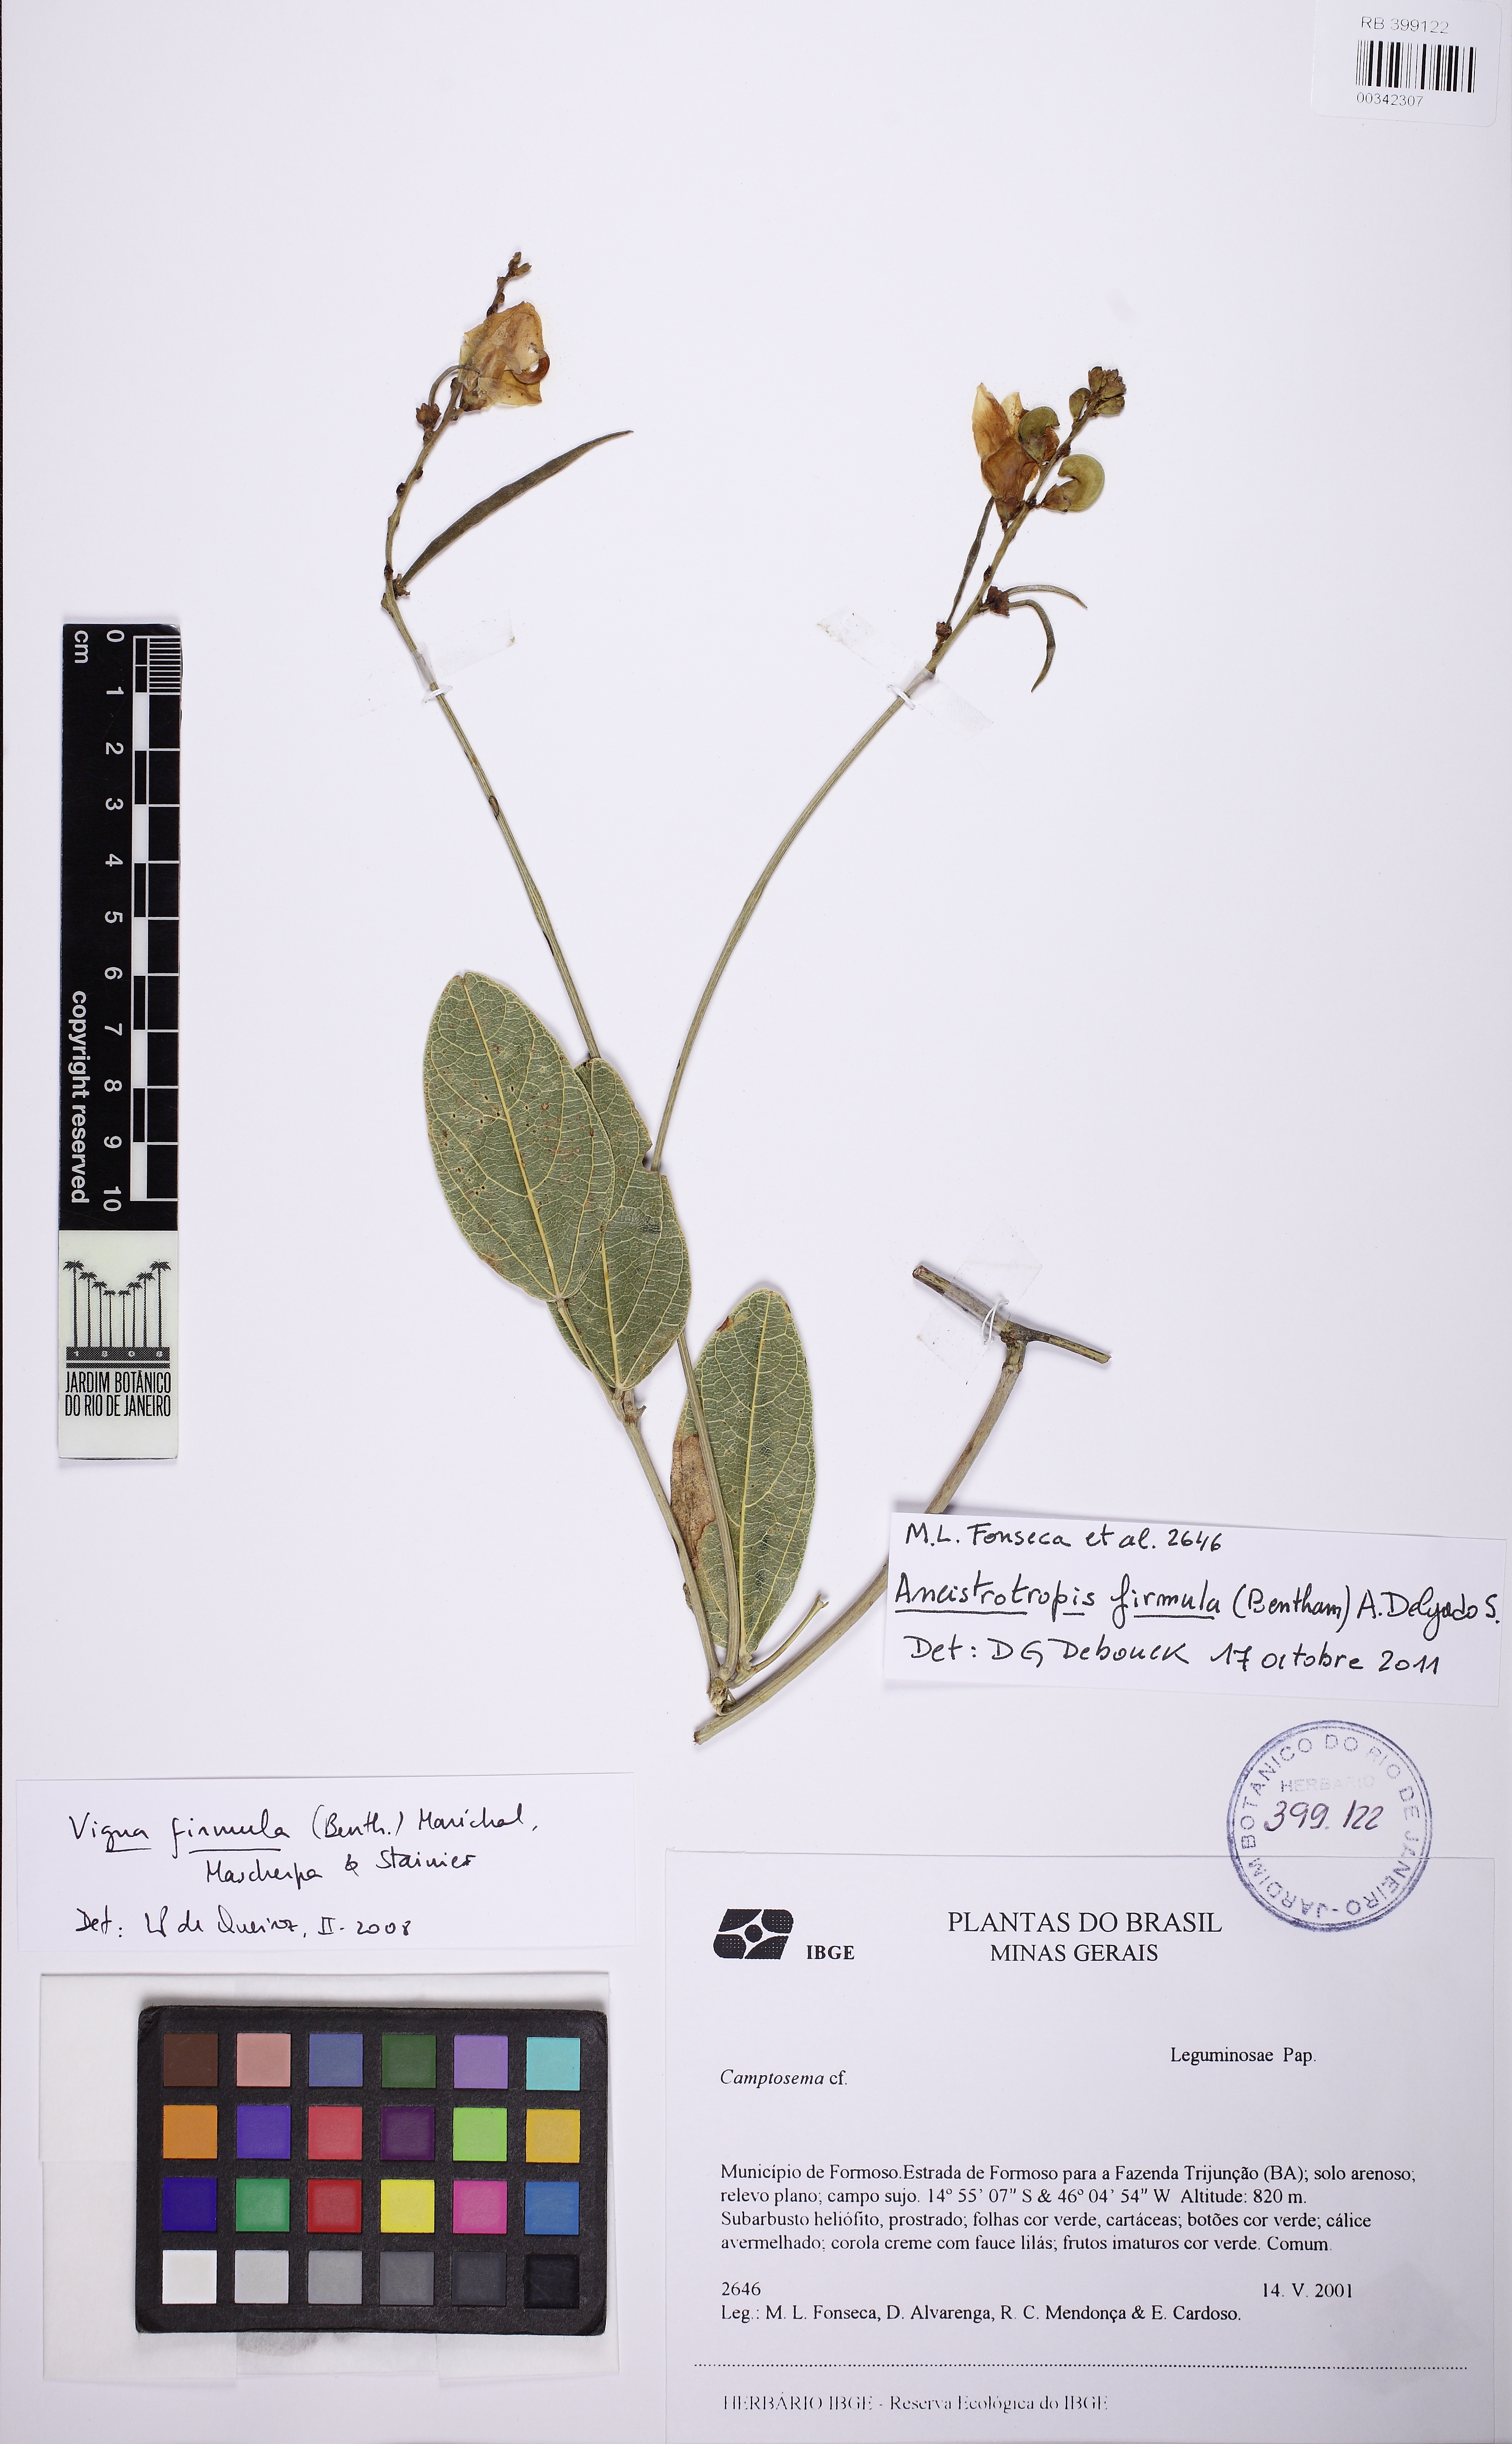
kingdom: Plantae
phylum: Tracheophyta
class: Magnoliopsida
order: Fabales
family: Fabaceae
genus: Ancistrotropis
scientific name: Ancistrotropis firmula
